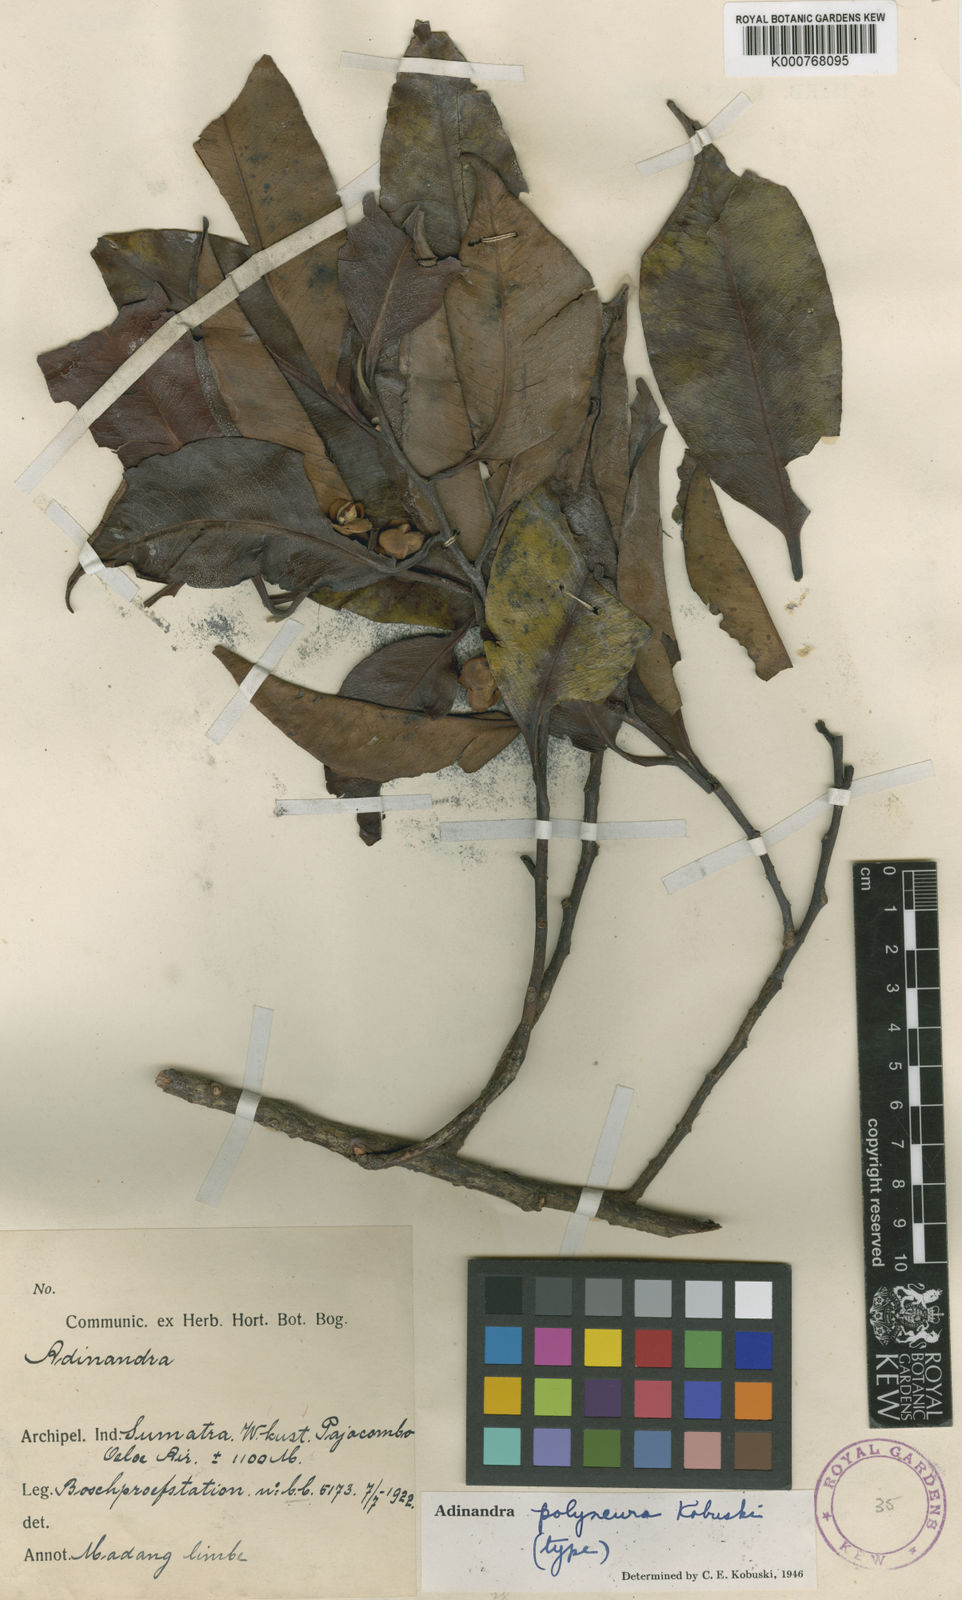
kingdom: Plantae
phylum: Tracheophyta
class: Magnoliopsida
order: Ericales
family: Pentaphylacaceae
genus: Adinandra
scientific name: Adinandra polyneura
